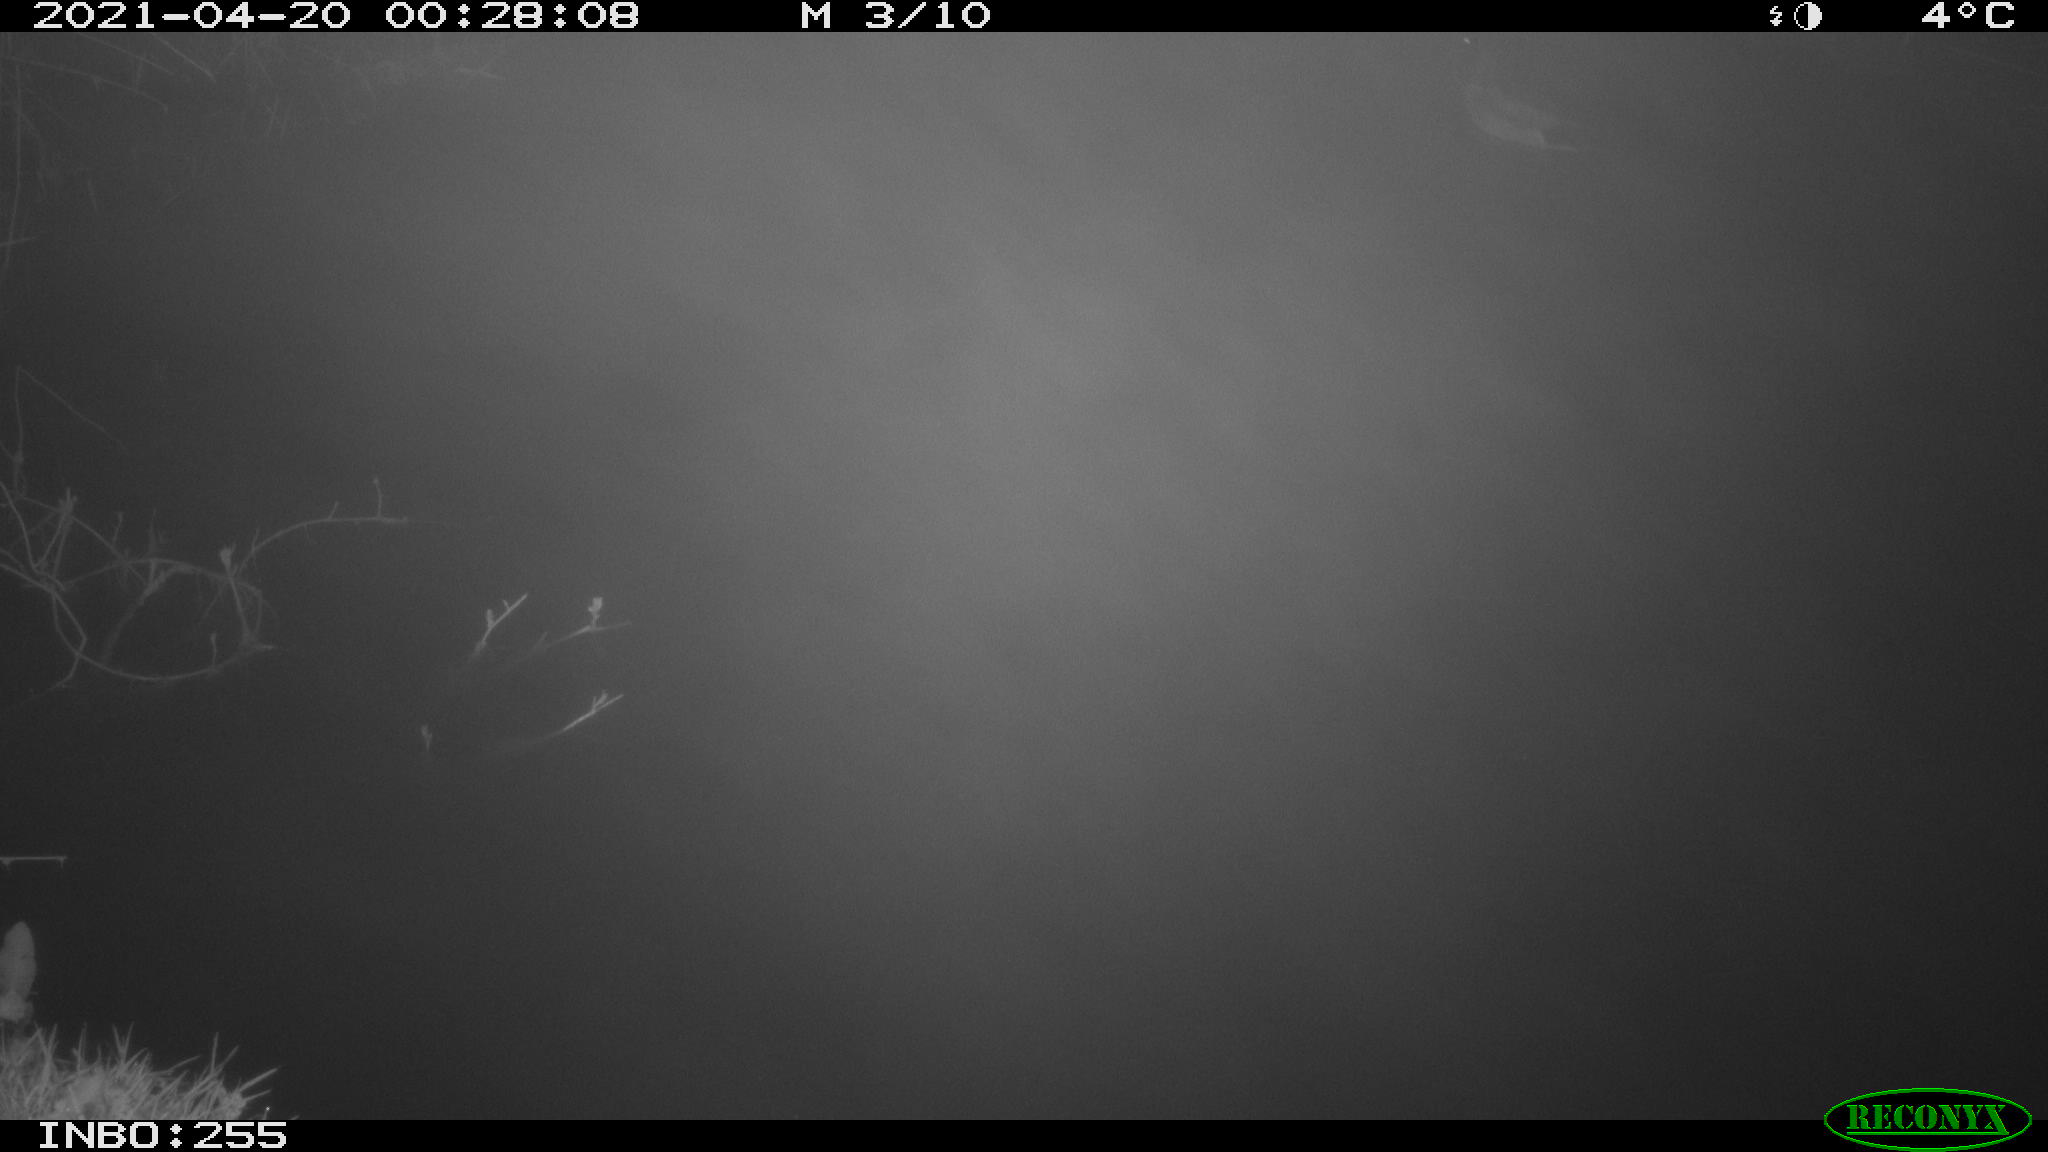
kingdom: Animalia
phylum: Chordata
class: Aves
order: Anseriformes
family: Anatidae
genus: Anas
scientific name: Anas platyrhynchos
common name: Mallard
